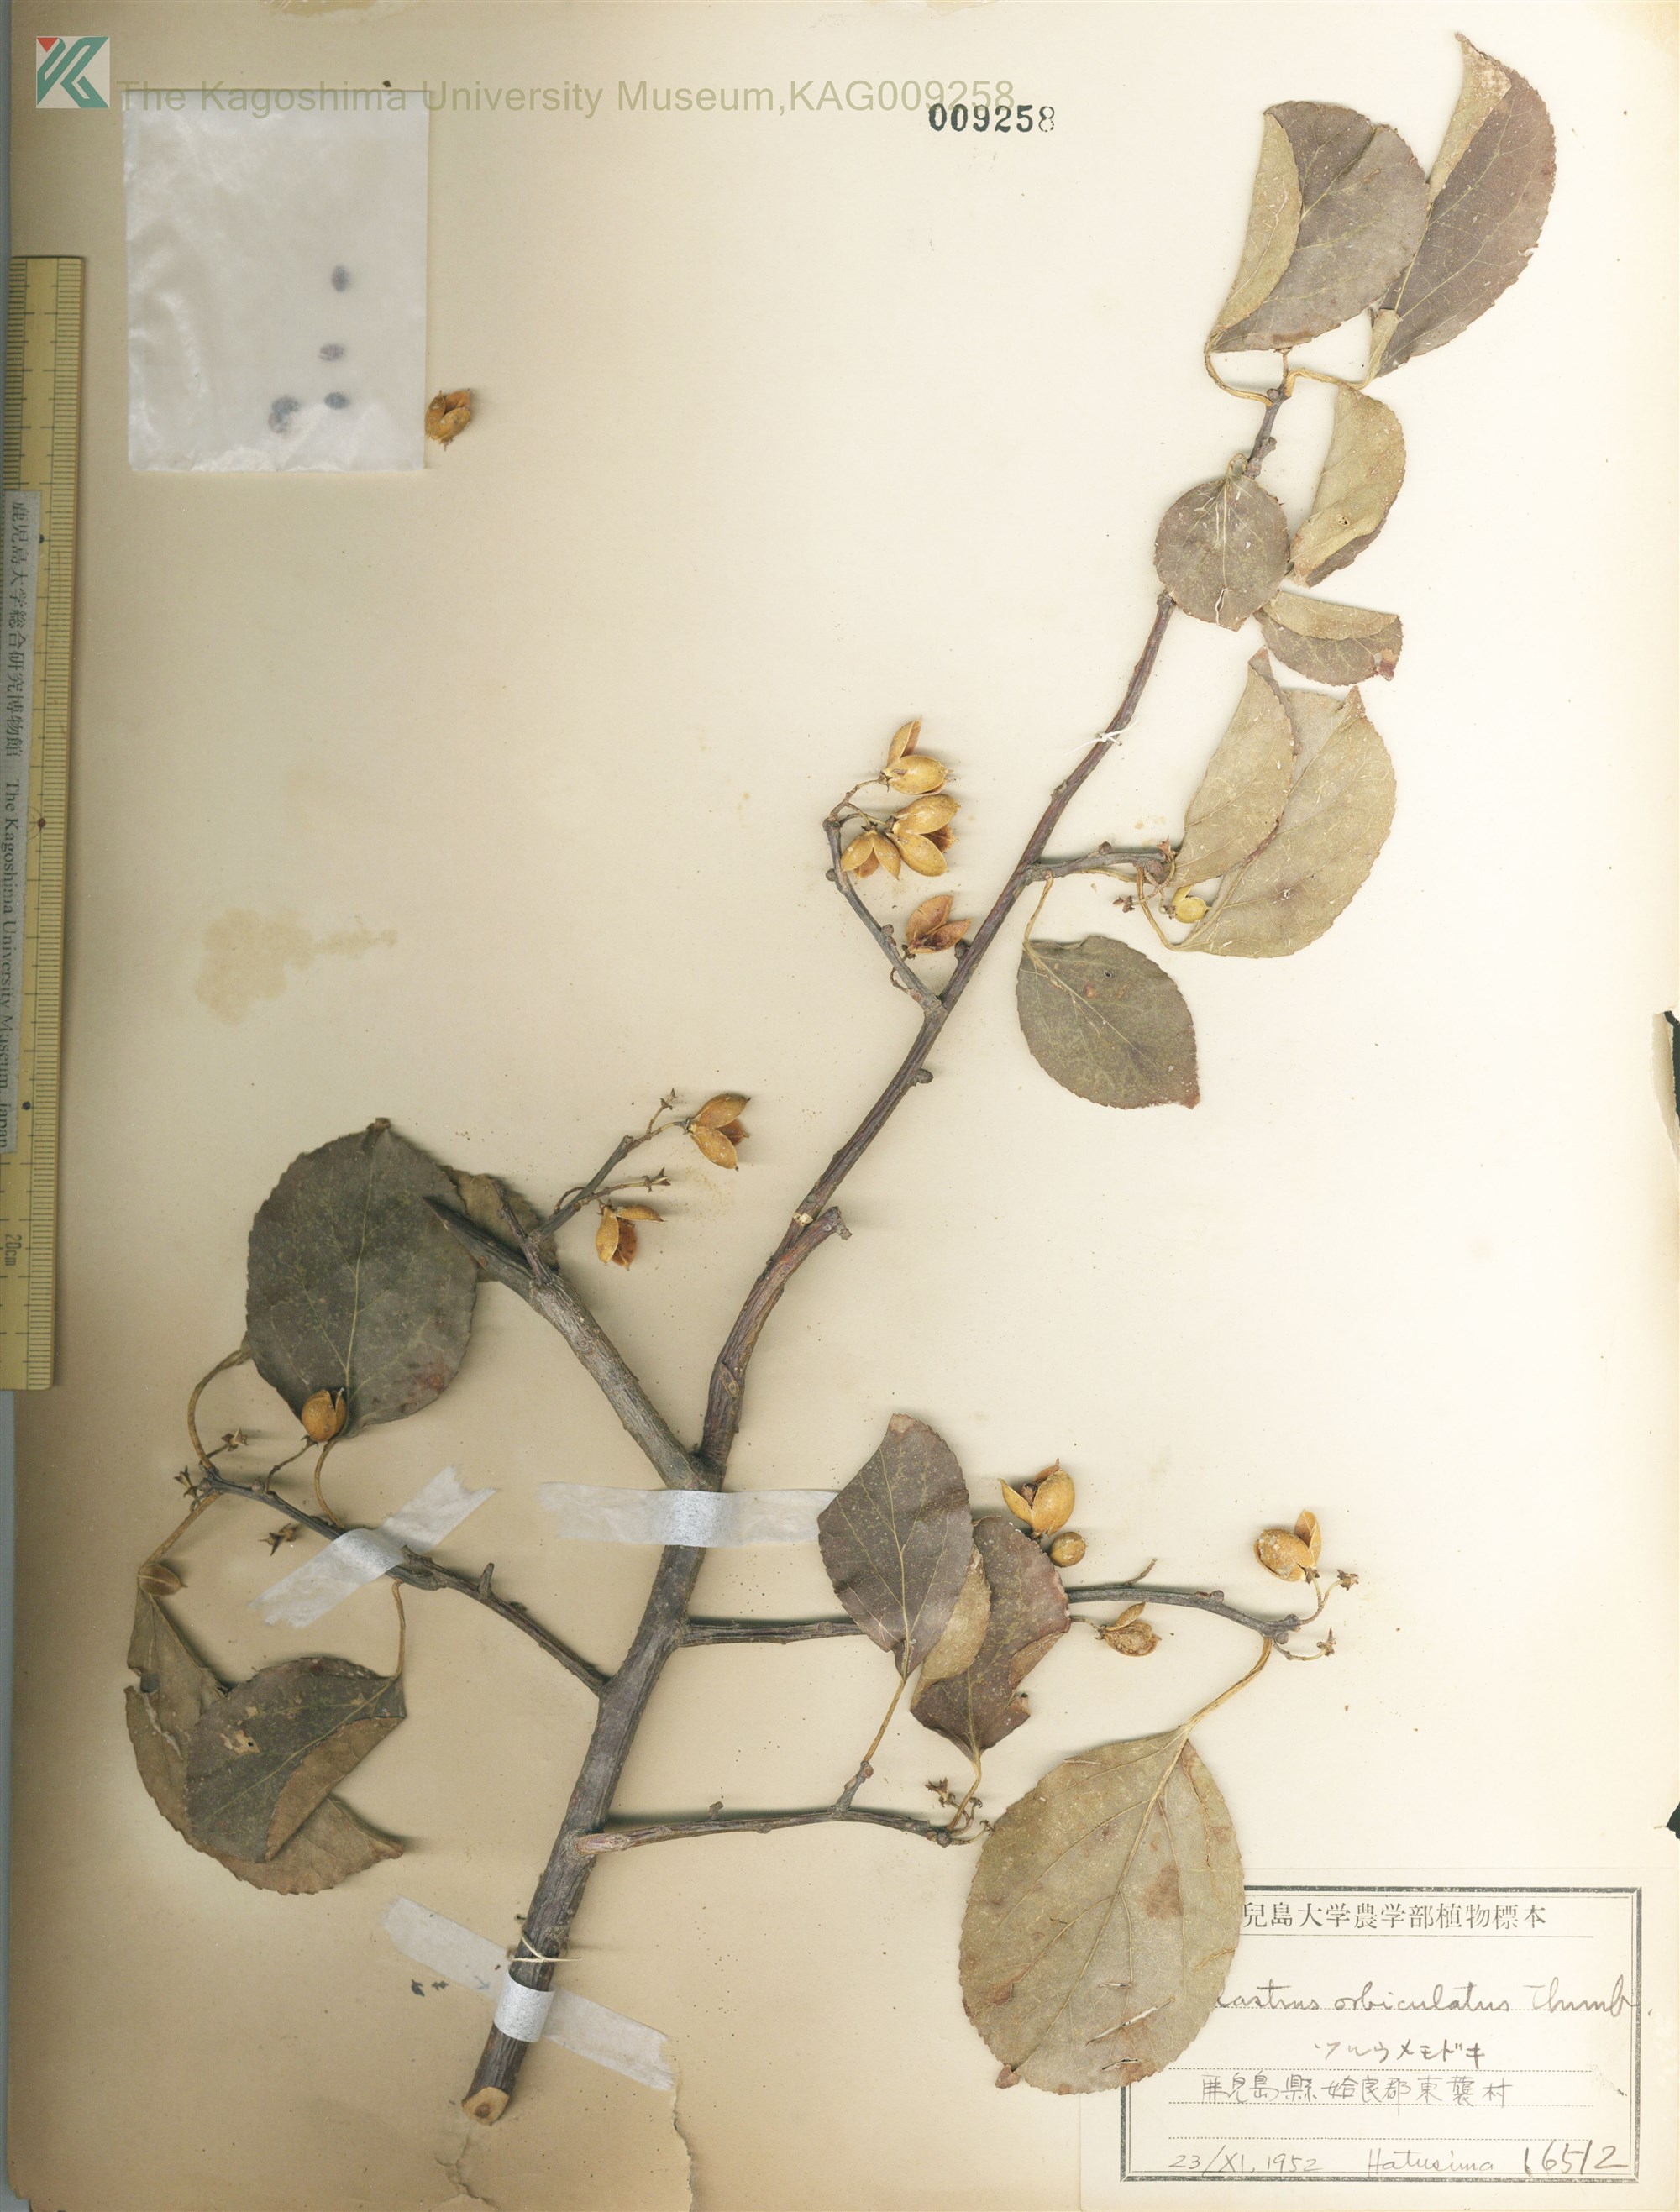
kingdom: Plantae
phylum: Tracheophyta
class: Magnoliopsida
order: Celastrales
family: Celastraceae
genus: Celastrus
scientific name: Celastrus orbiculatus
